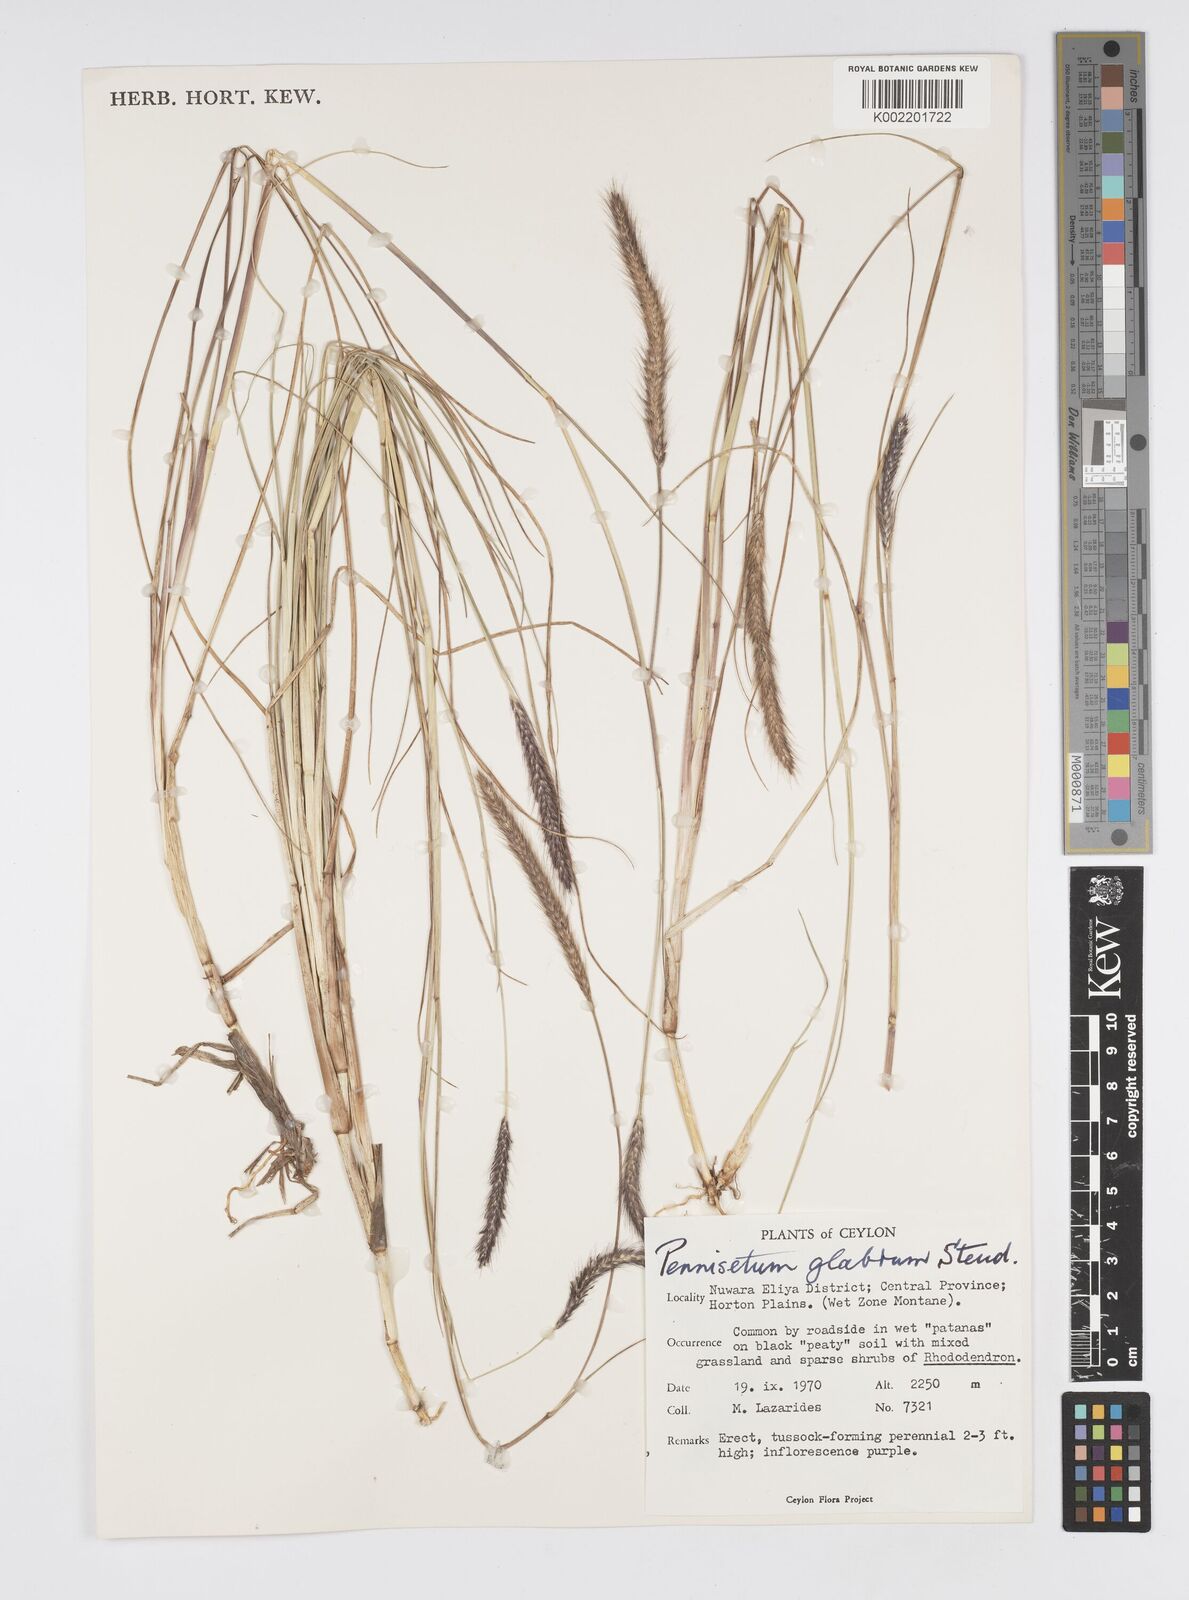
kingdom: Plantae
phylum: Tracheophyta
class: Liliopsida
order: Poales
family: Poaceae
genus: Cenchrus
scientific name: Cenchrus geniculatus
